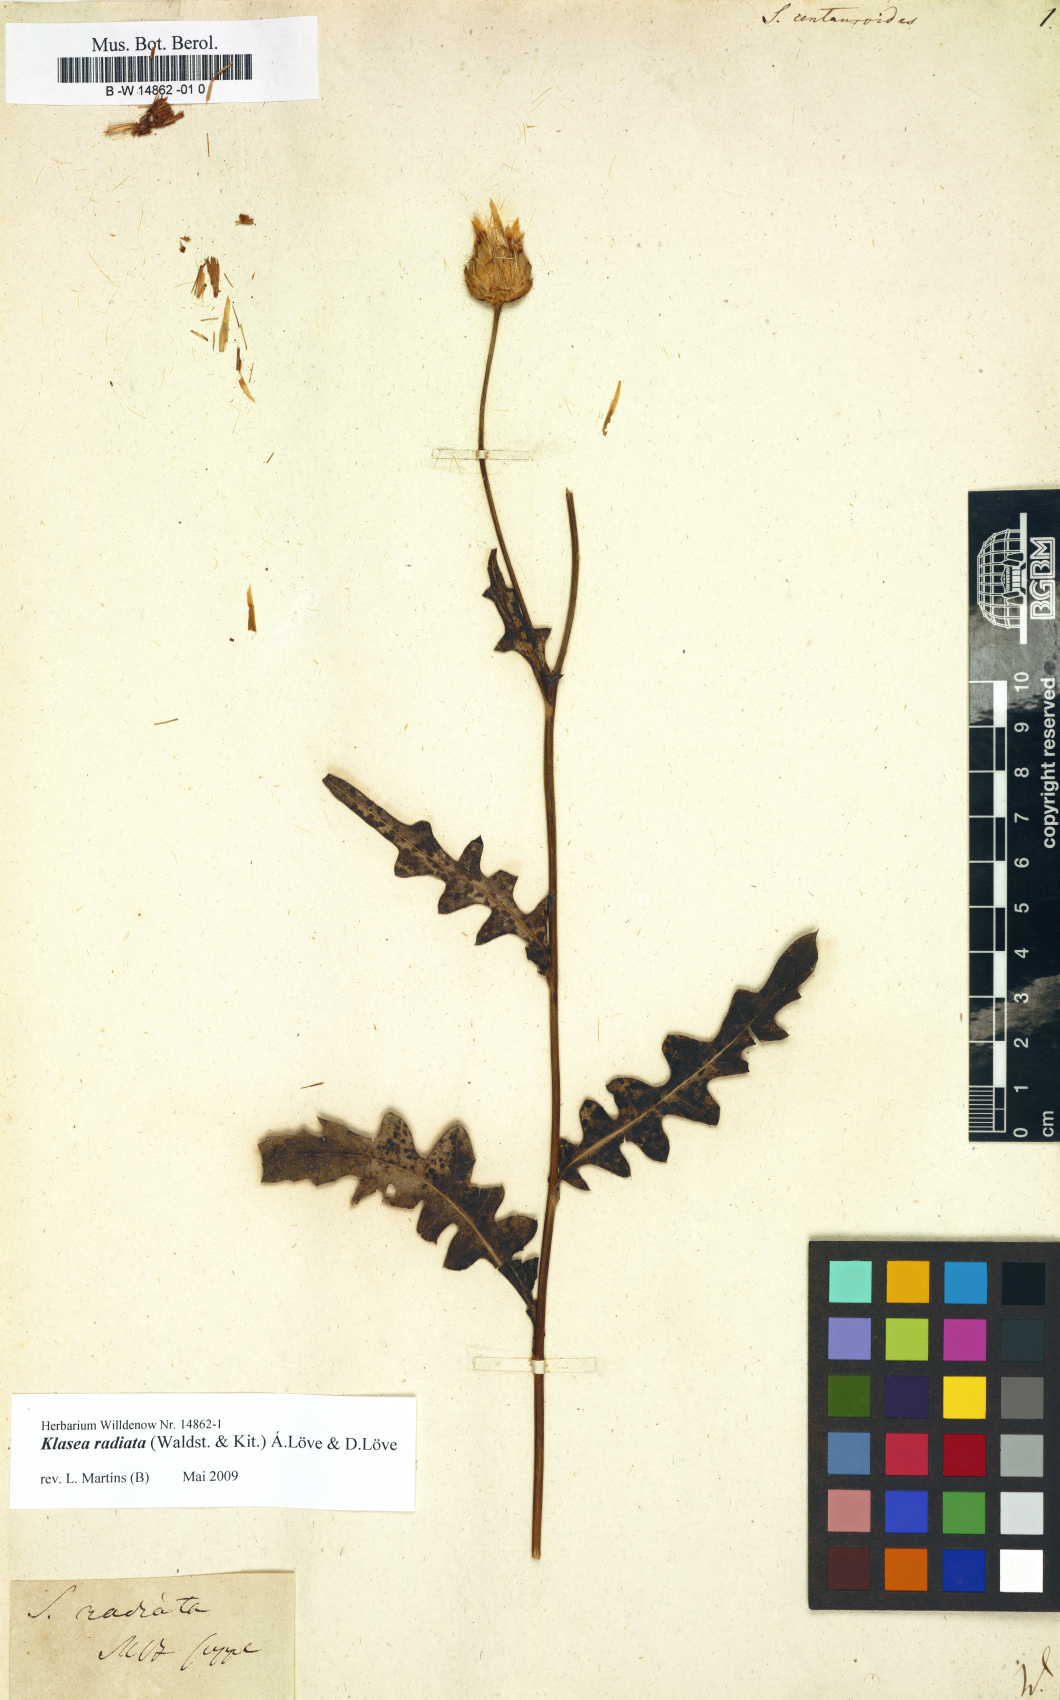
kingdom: Plantae
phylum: Tracheophyta
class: Magnoliopsida
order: Asterales
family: Asteraceae
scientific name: Asteraceae
